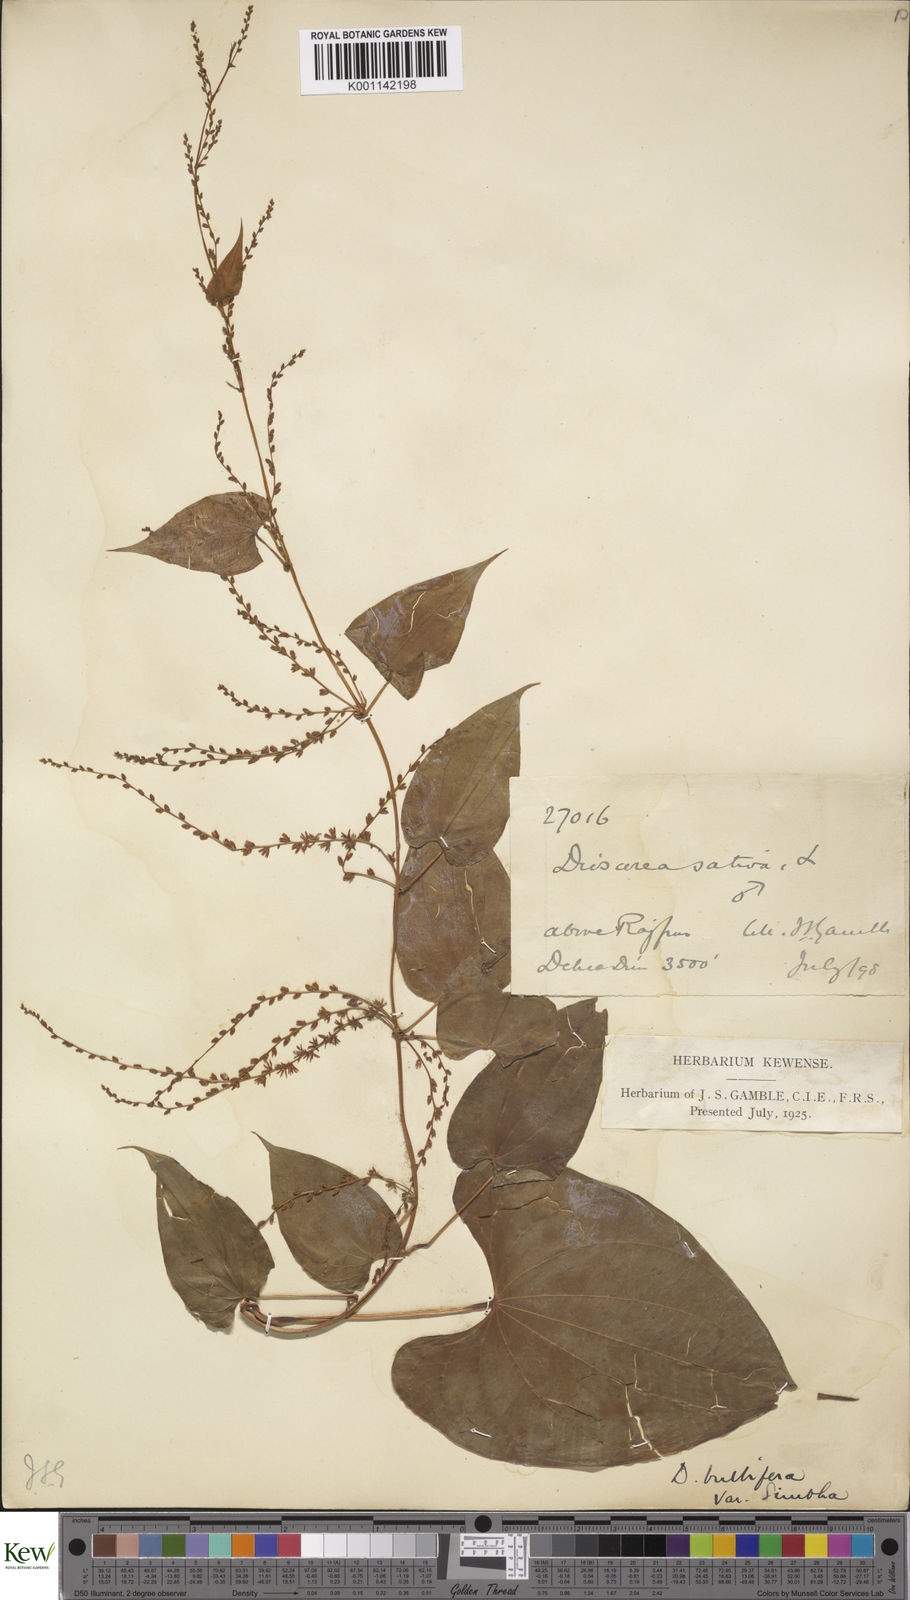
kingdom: Plantae
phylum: Tracheophyta
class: Liliopsida
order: Dioscoreales
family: Dioscoreaceae
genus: Dioscorea
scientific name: Dioscorea bulbifera
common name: Air yam
